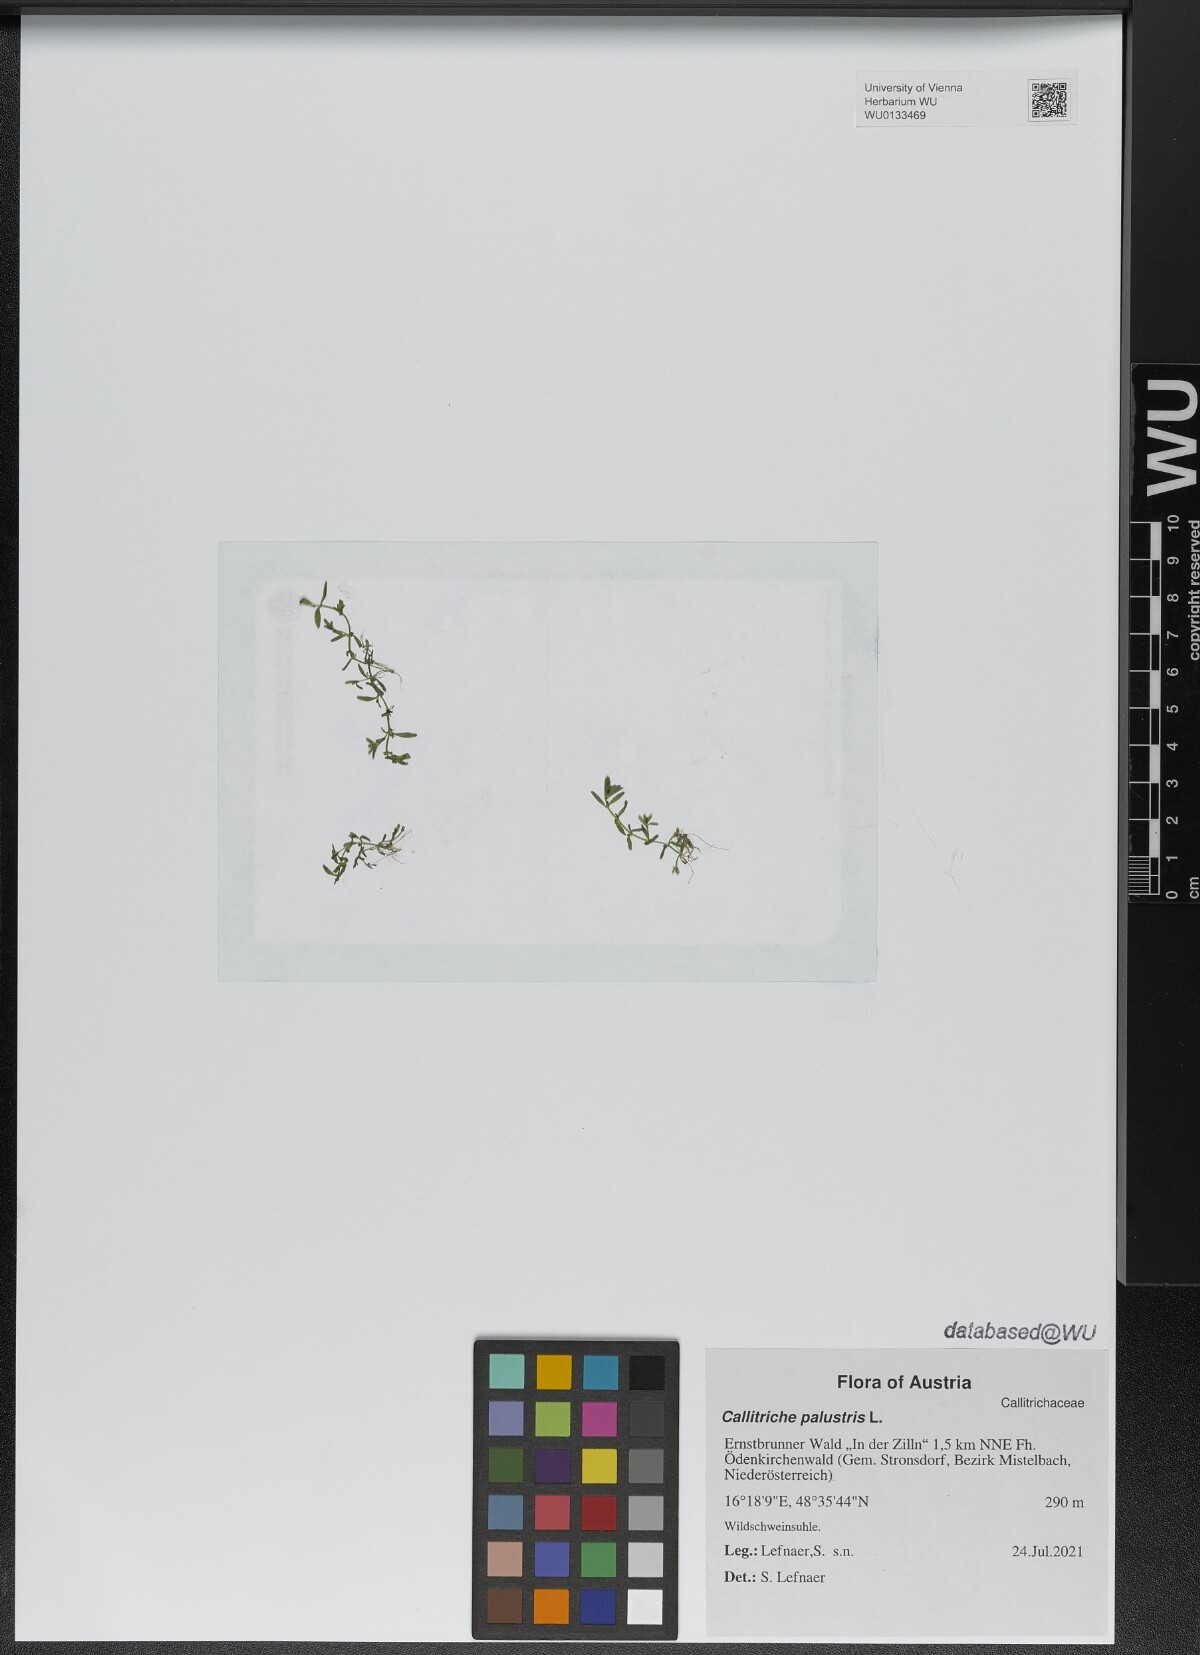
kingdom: Plantae
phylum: Tracheophyta
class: Magnoliopsida
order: Lamiales
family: Plantaginaceae
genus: Callitriche
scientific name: Callitriche palustris
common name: Spring water-starwort
